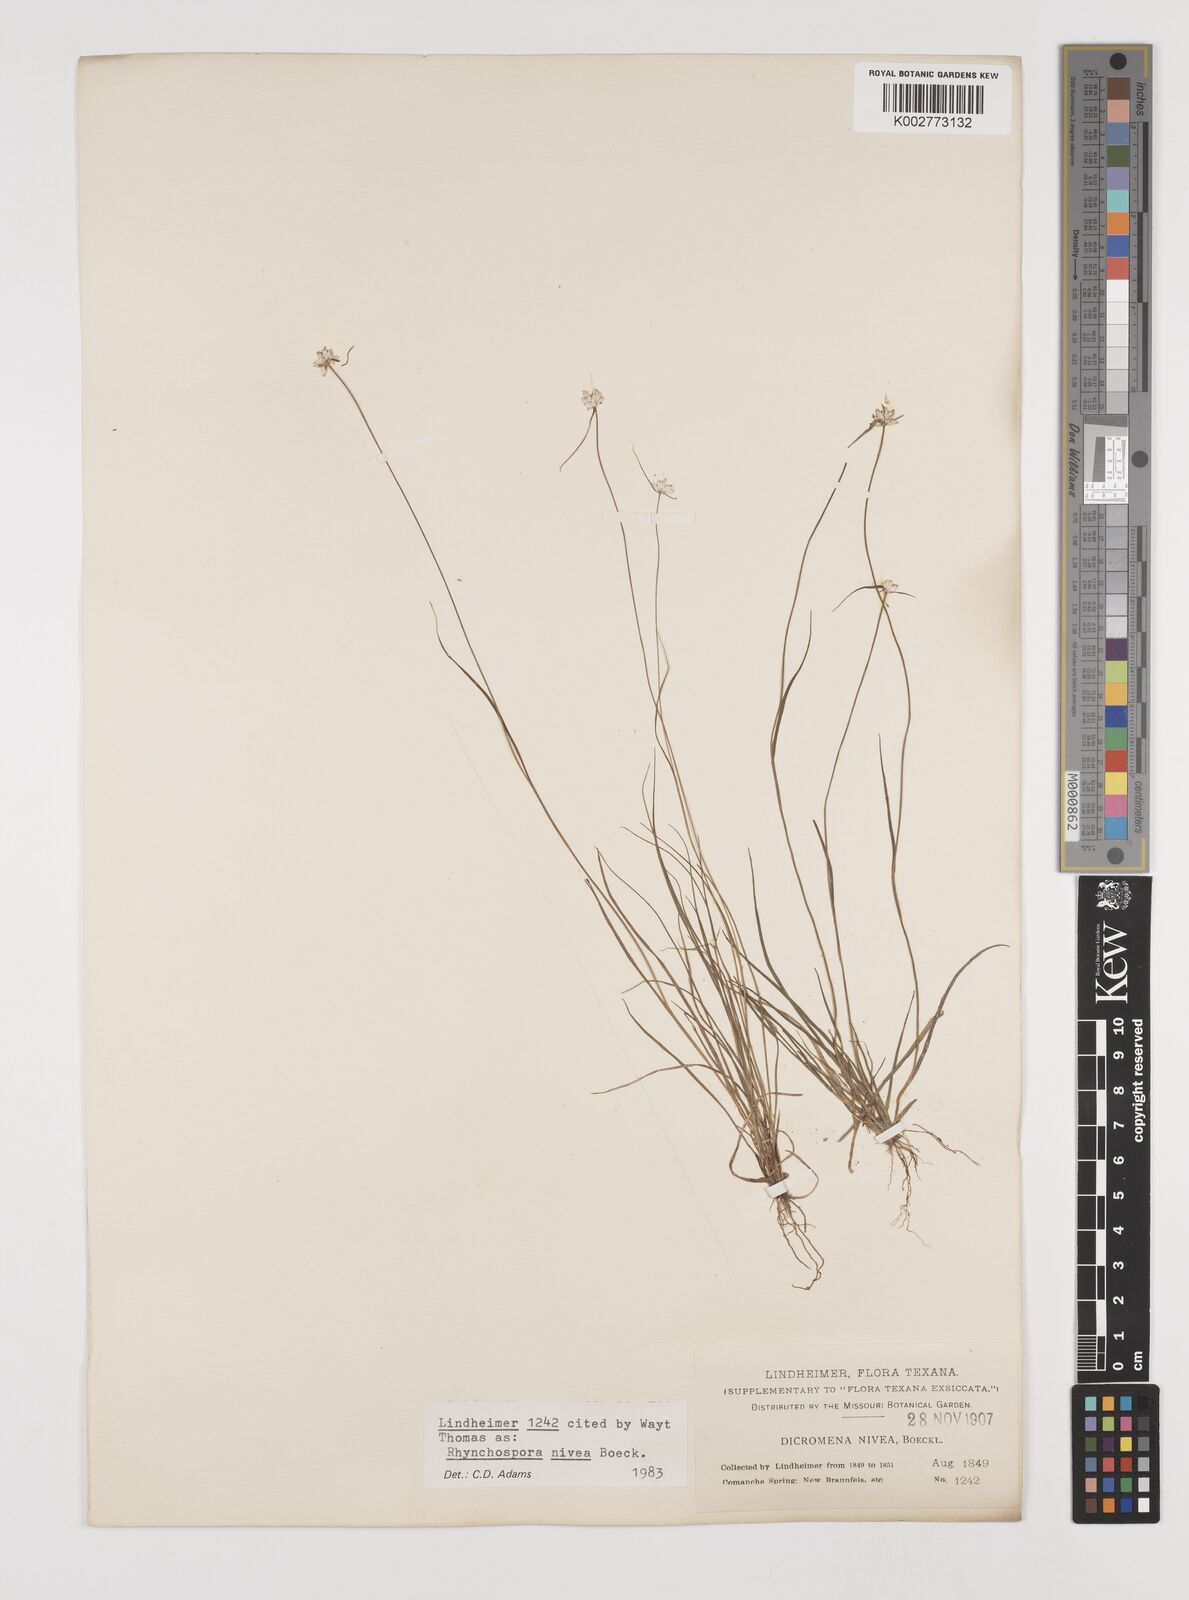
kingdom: Plantae
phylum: Tracheophyta
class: Liliopsida
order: Poales
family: Cyperaceae
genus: Rhynchospora
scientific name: Rhynchospora nivea
